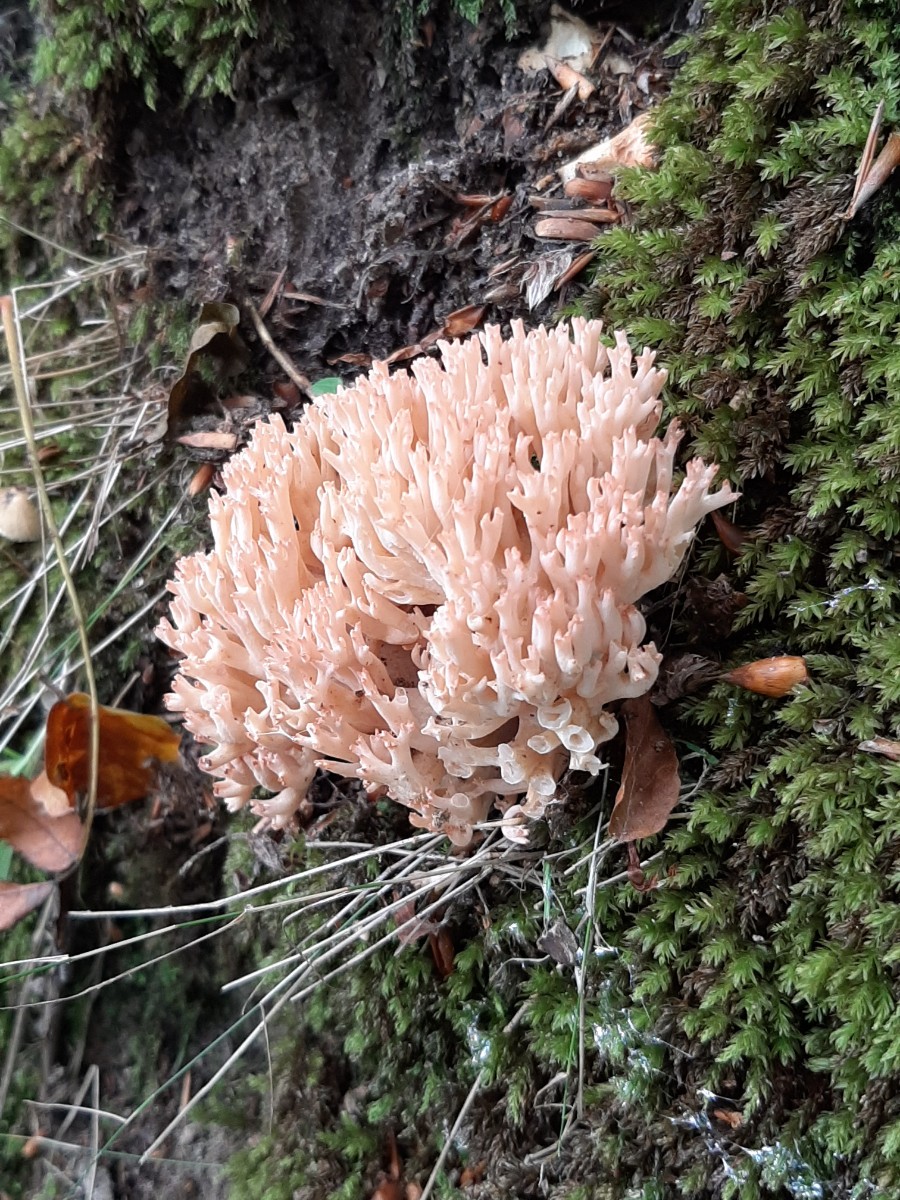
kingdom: Fungi
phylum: Basidiomycota
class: Agaricomycetes
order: Gomphales
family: Gomphaceae
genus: Ramaria
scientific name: Ramaria botrytis
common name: drue-koralsvamp
